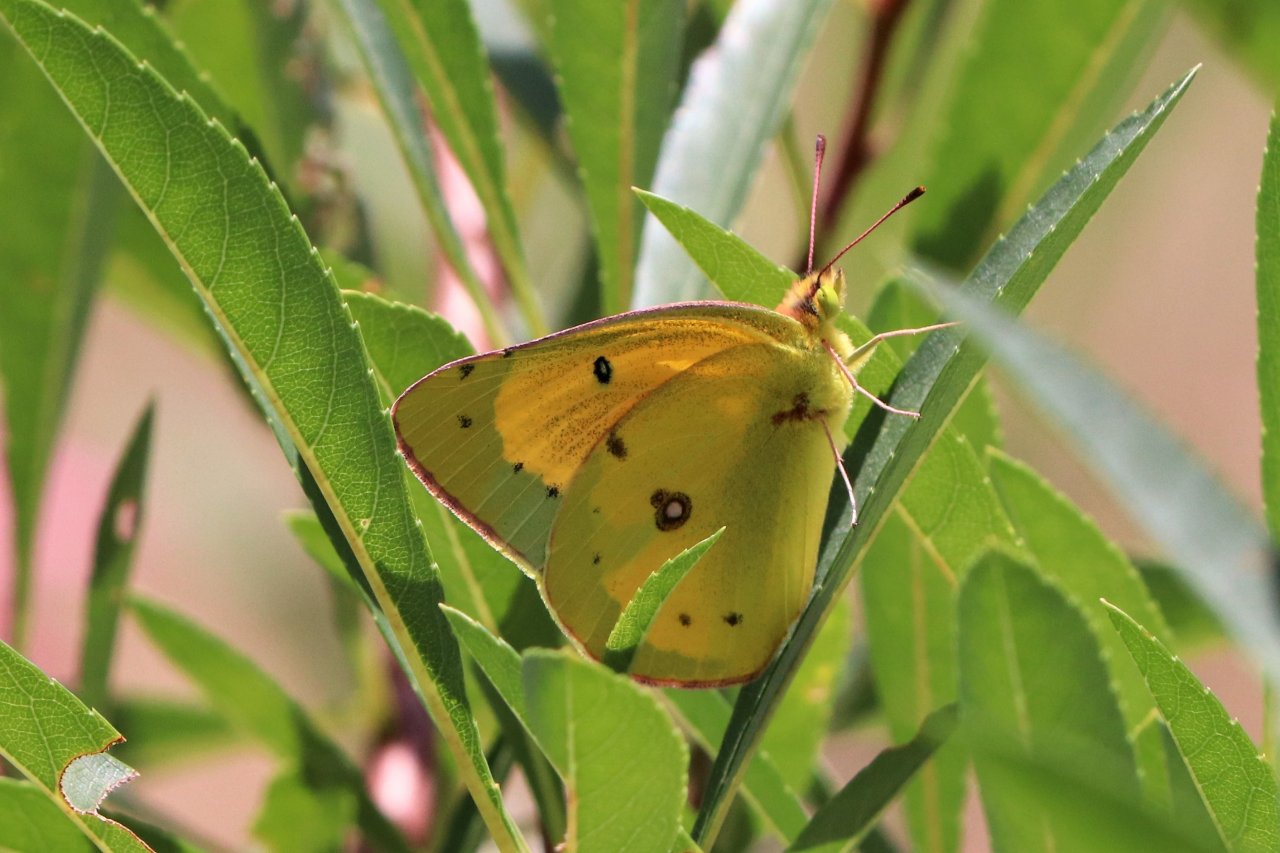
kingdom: Animalia
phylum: Arthropoda
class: Insecta
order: Lepidoptera
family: Pieridae
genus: Colias
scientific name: Colias eurytheme
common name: Orange Sulphur
